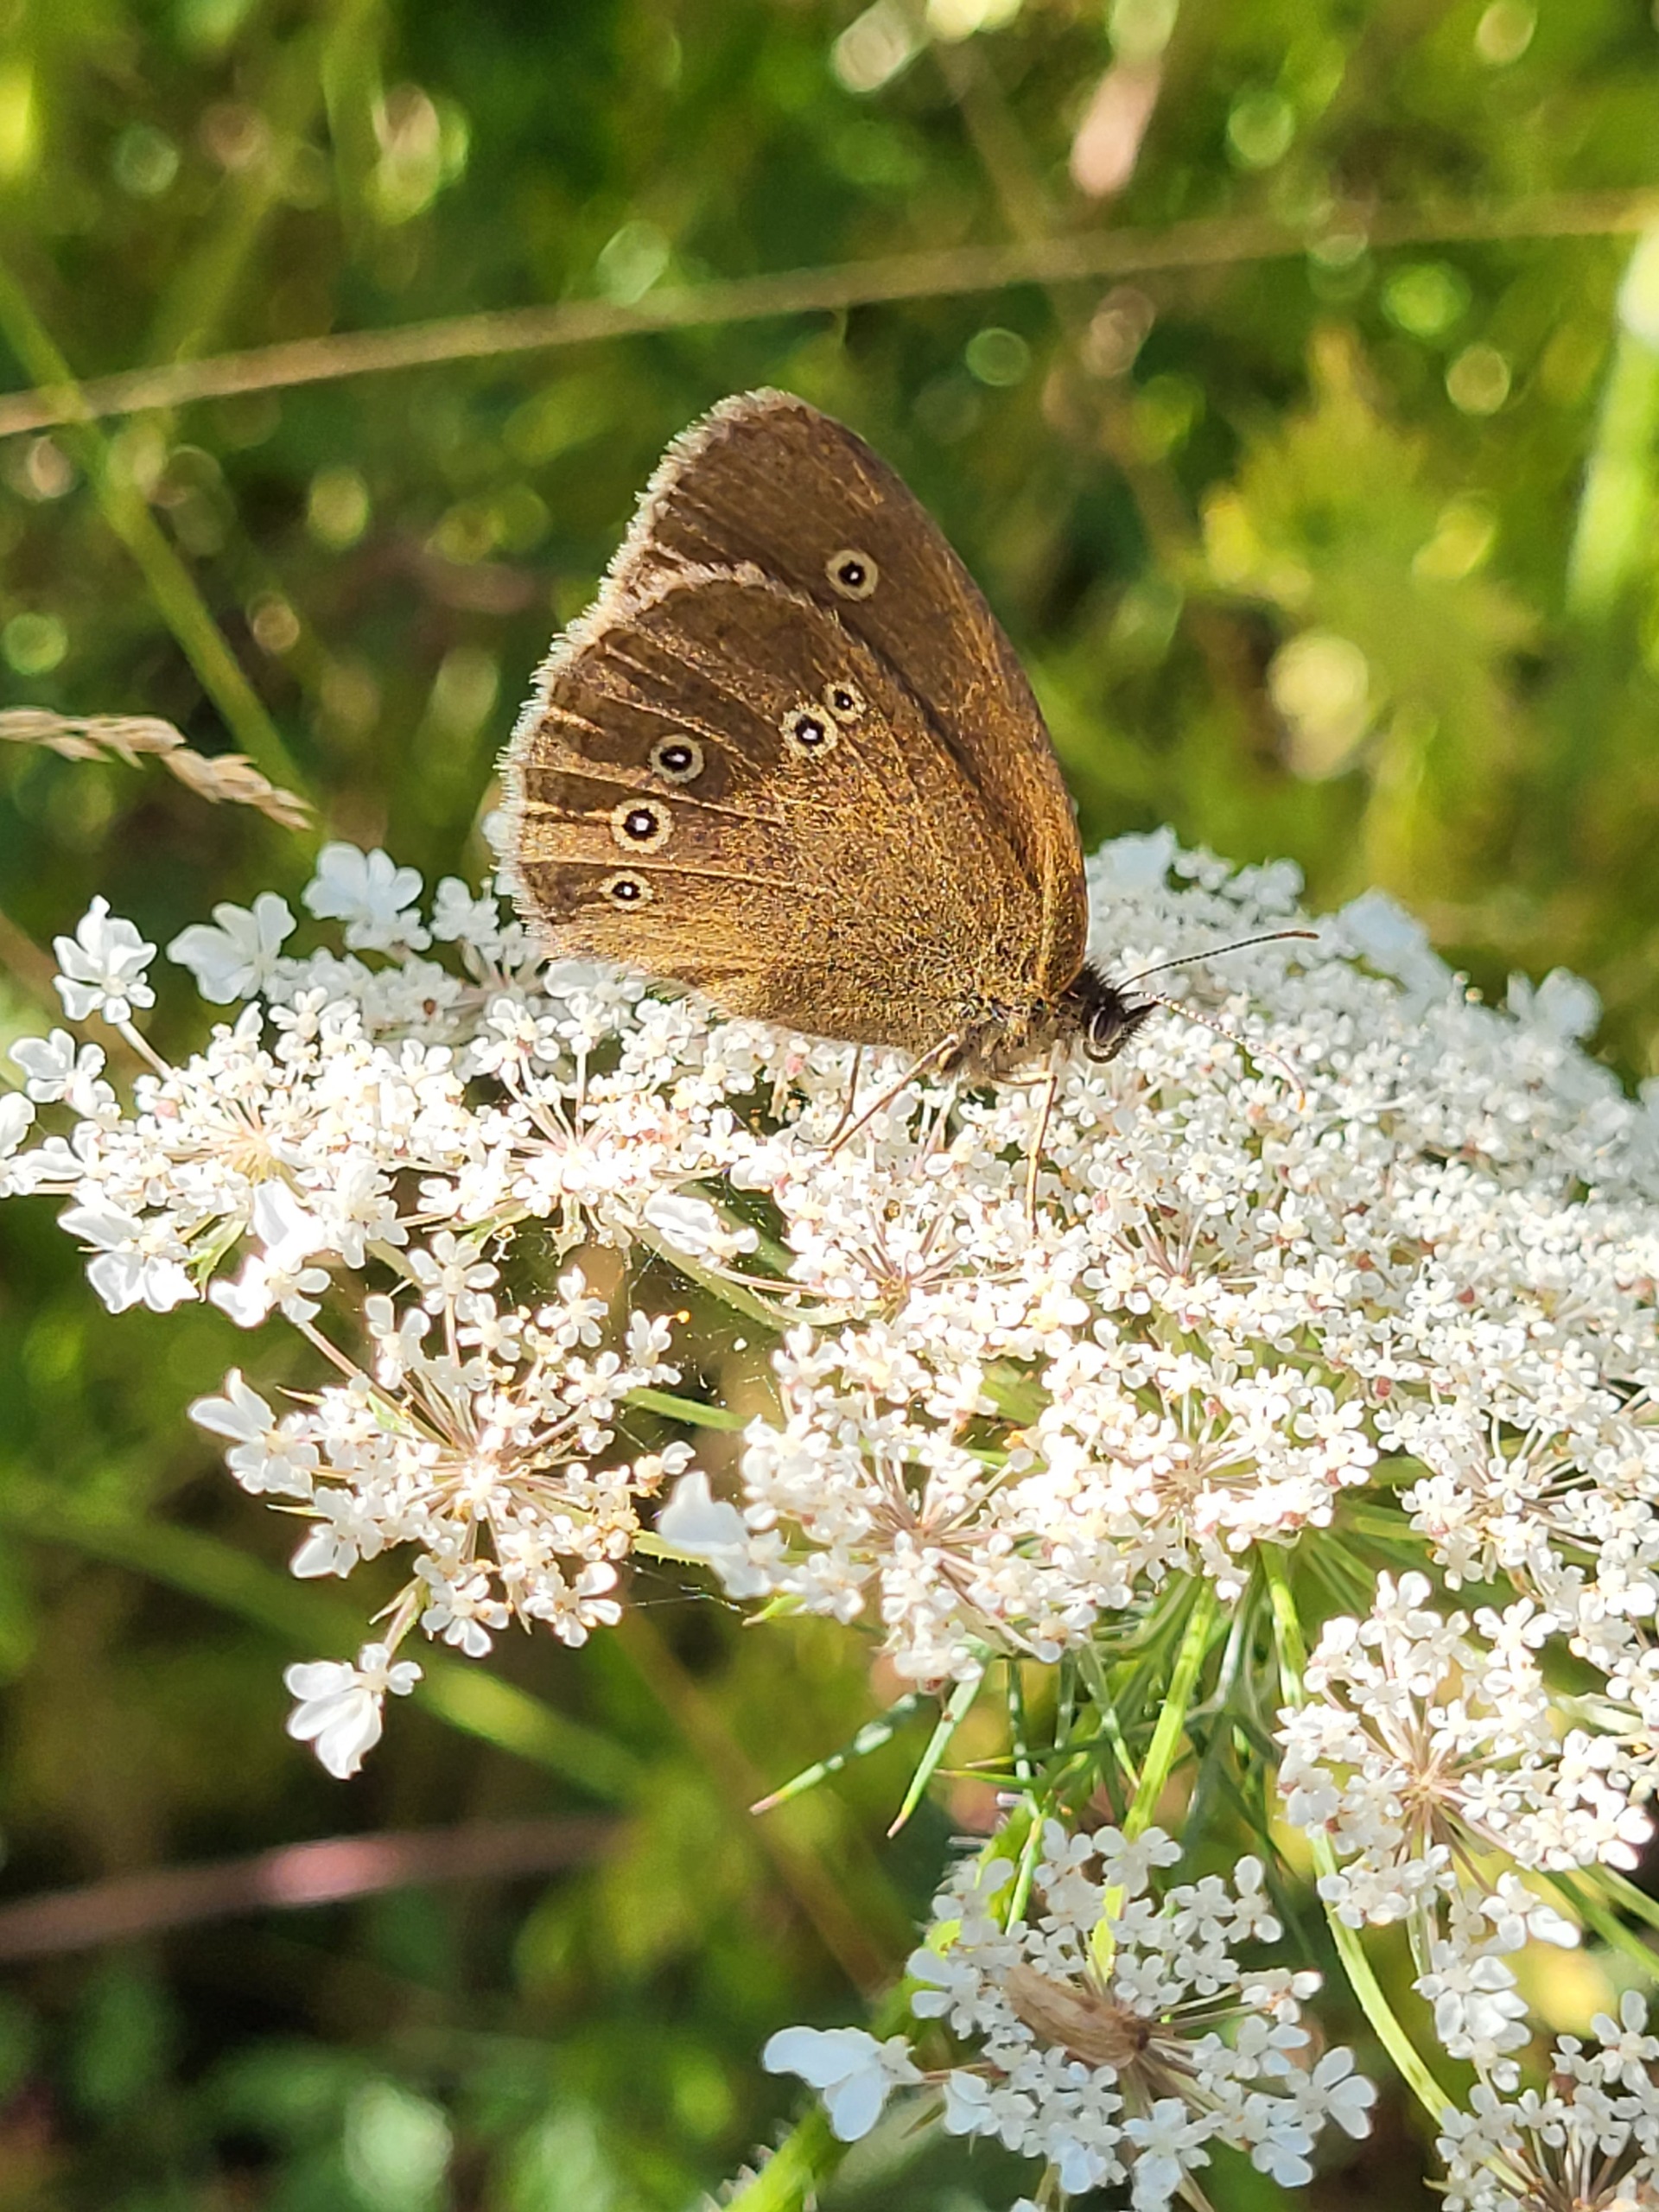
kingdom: Animalia
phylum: Arthropoda
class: Insecta
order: Lepidoptera
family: Nymphalidae
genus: Aphantopus
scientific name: Aphantopus hyperantus
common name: Engrandøje
